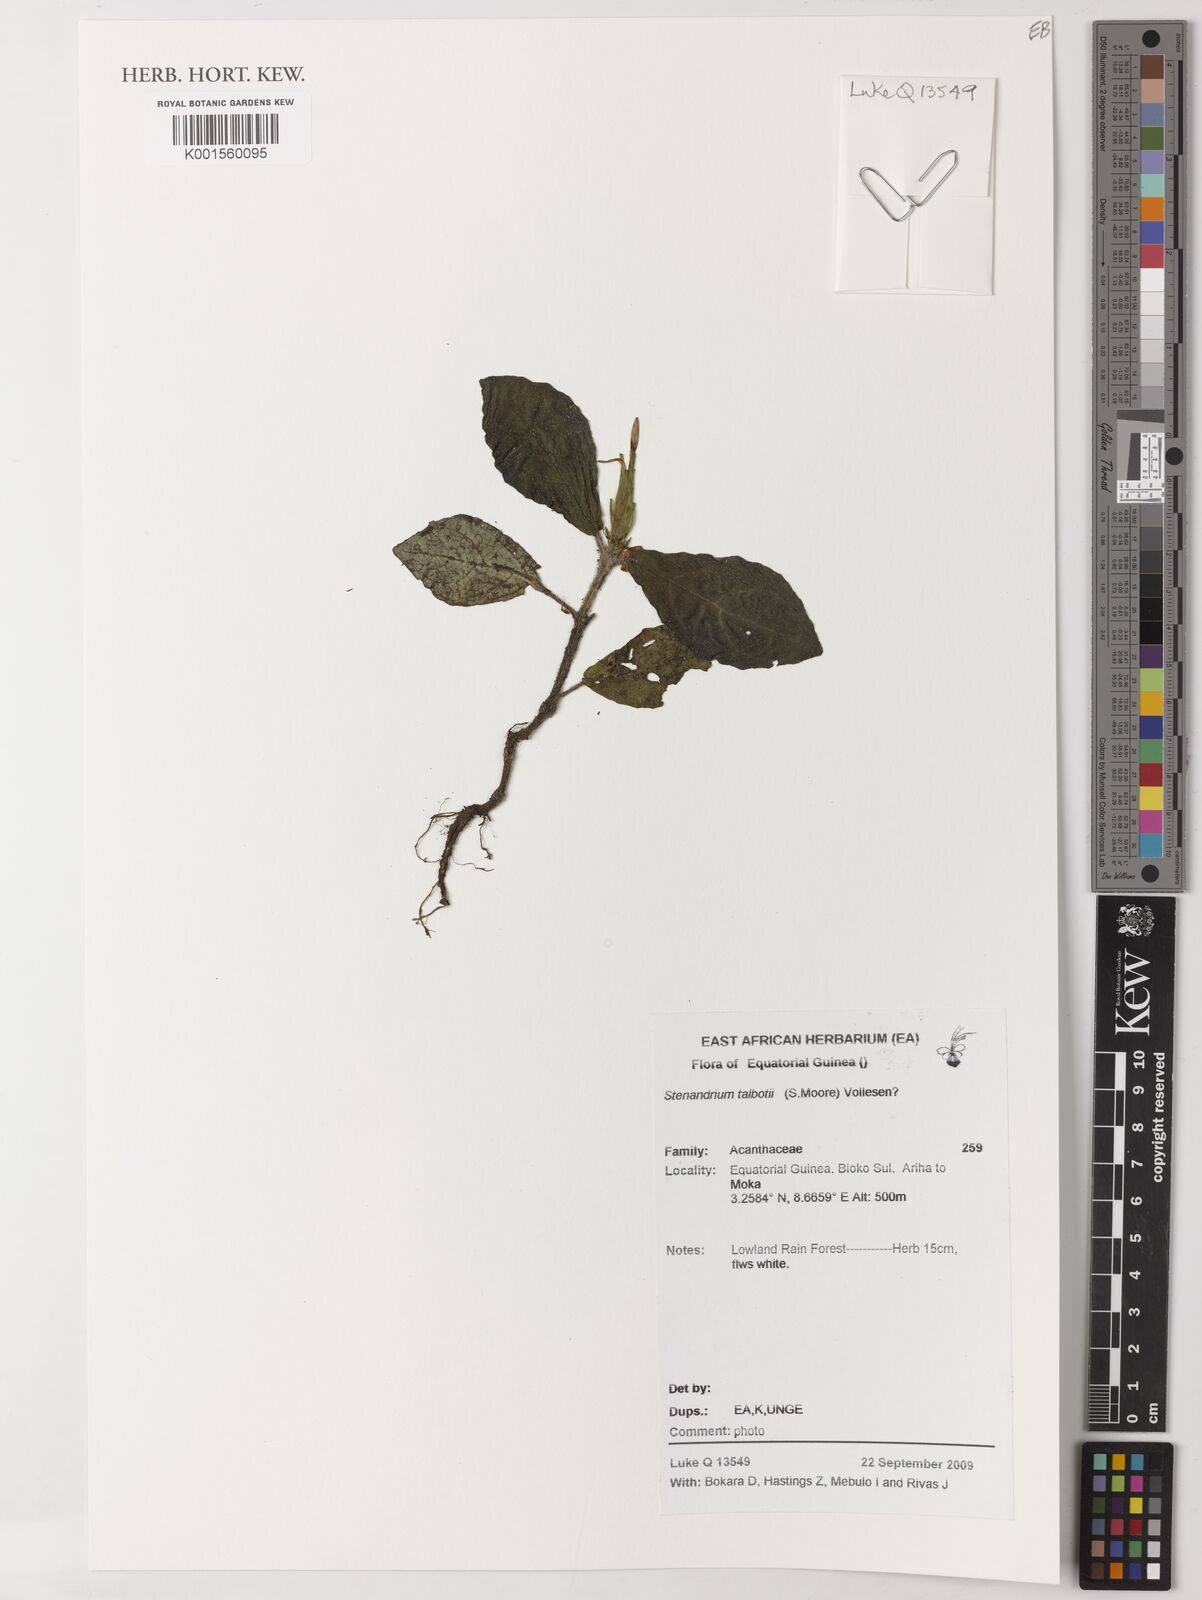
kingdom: Plantae
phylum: Tracheophyta
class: Magnoliopsida
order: Lamiales
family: Acanthaceae
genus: Stenandriopsis
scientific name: Stenandriopsis talbotii
